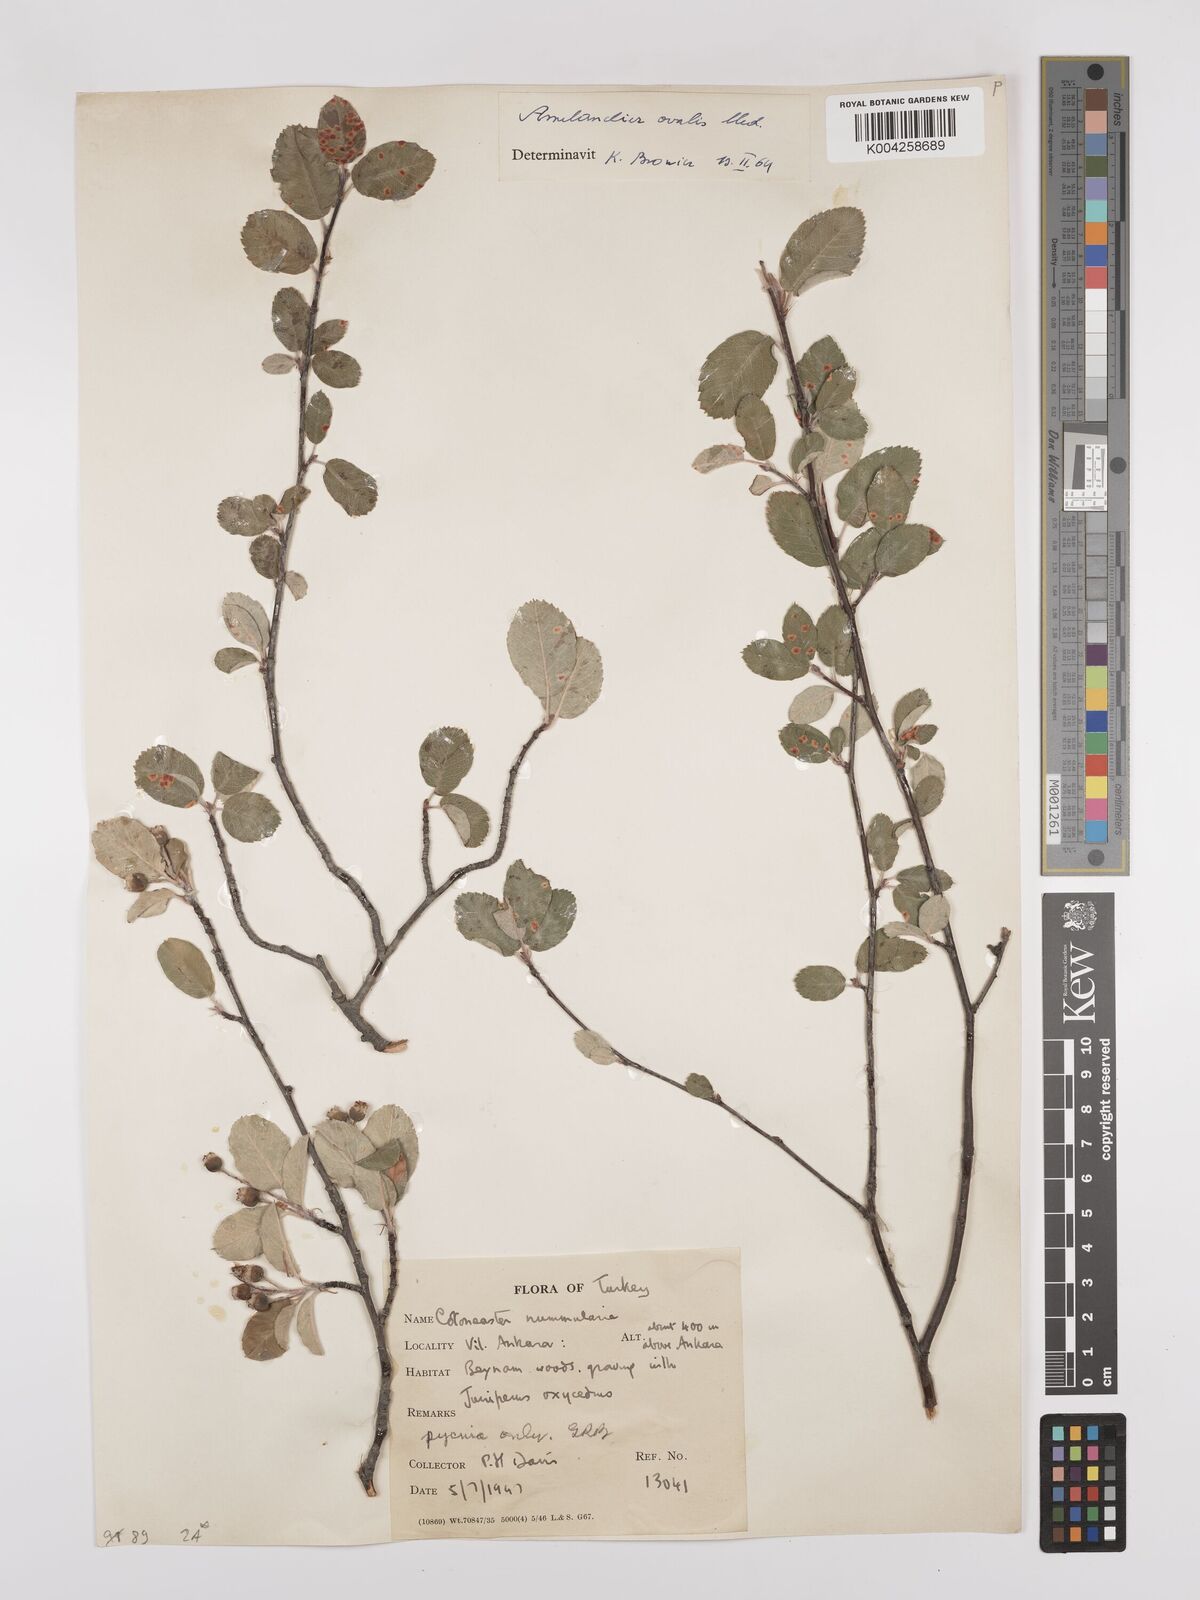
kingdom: Plantae
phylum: Tracheophyta
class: Magnoliopsida
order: Rosales
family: Rosaceae
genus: Amelanchier
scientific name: Amelanchier ovalis
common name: Serviceberry
